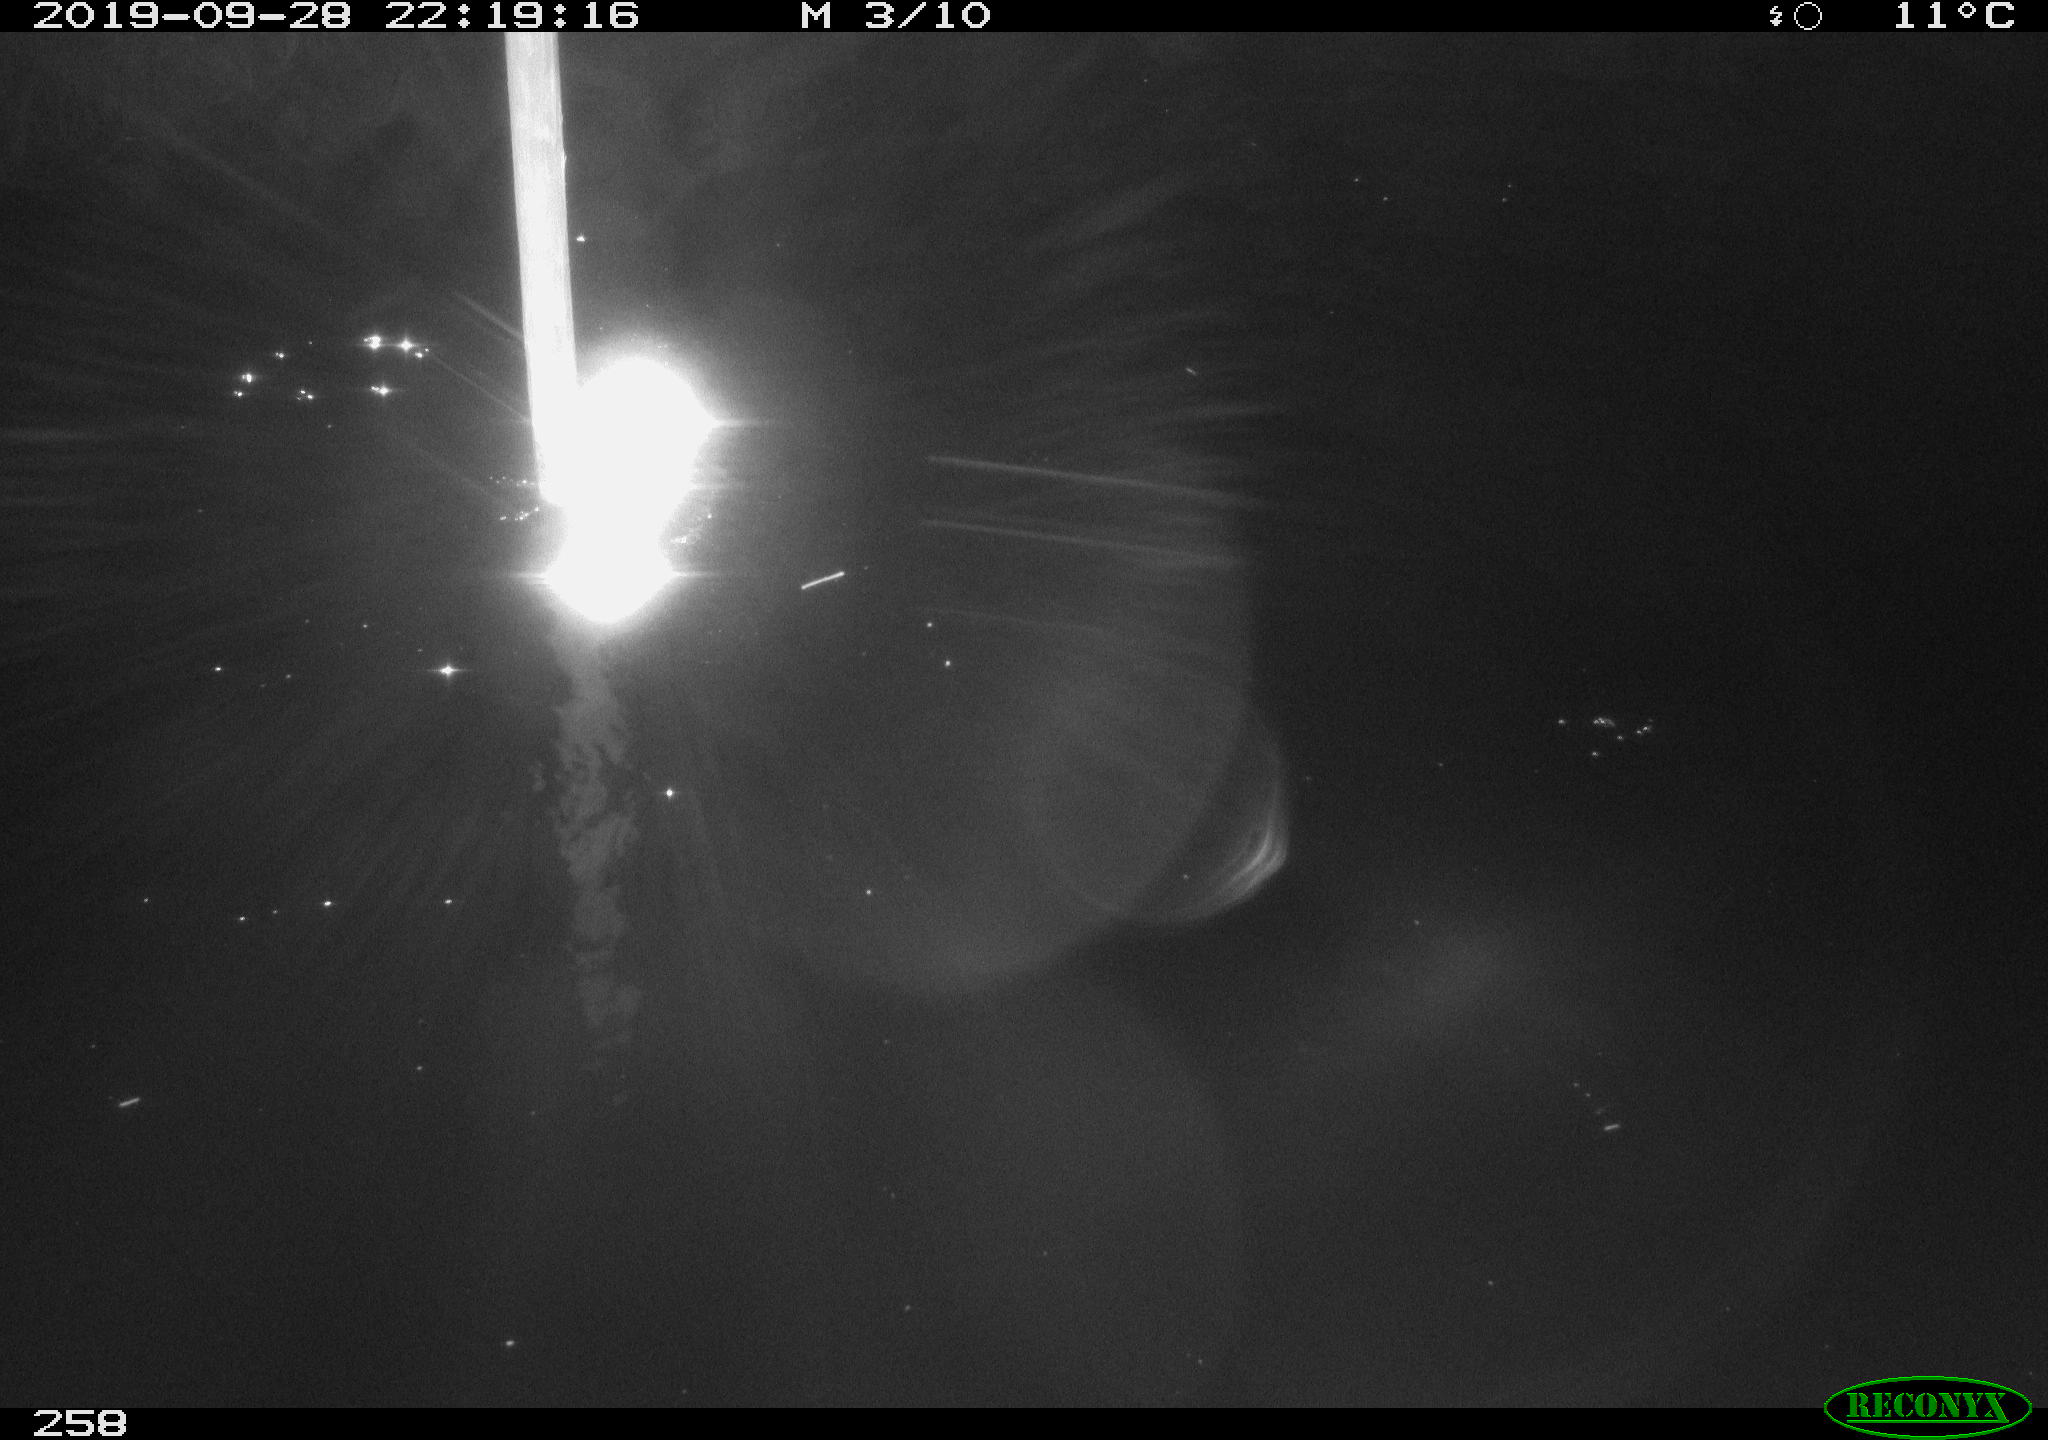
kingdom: Animalia
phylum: Chordata
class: Aves
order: Anseriformes
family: Anatidae
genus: Anas
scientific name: Anas platyrhynchos
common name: Mallard
